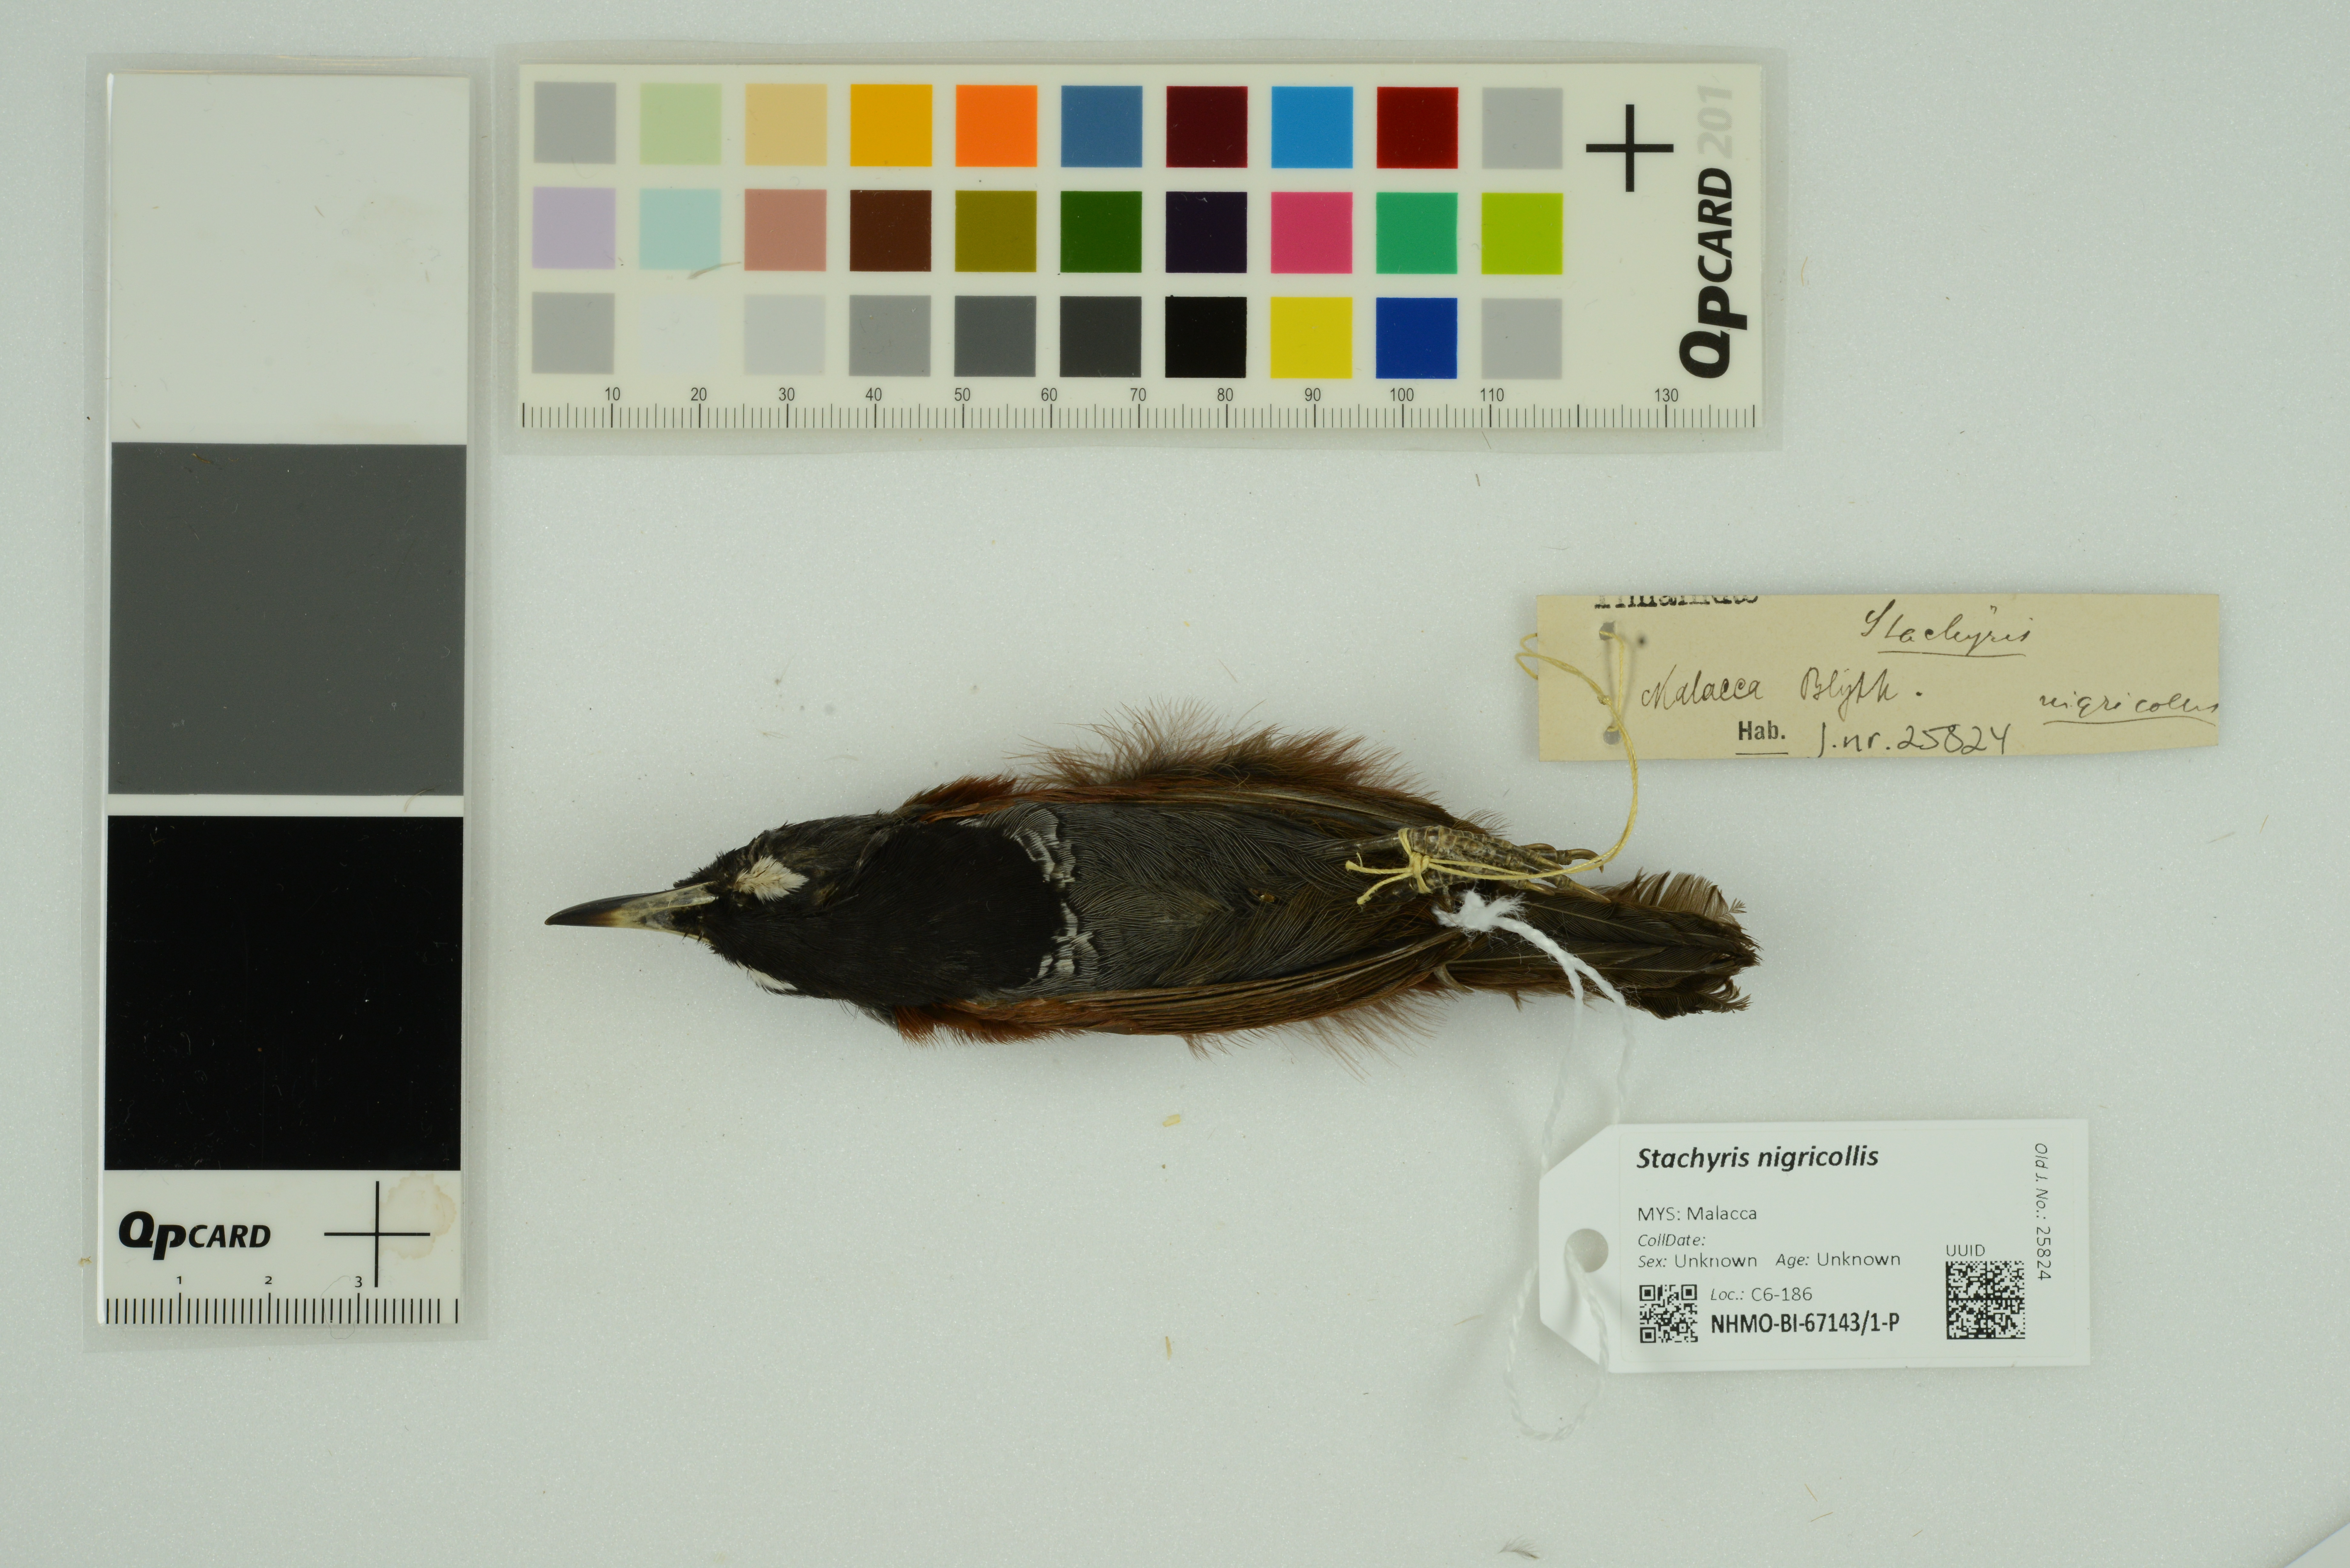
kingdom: Animalia
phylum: Chordata
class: Aves
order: Passeriformes
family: Timaliidae
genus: Stachyris
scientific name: Stachyris nigricollis
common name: Black-throated babbler
